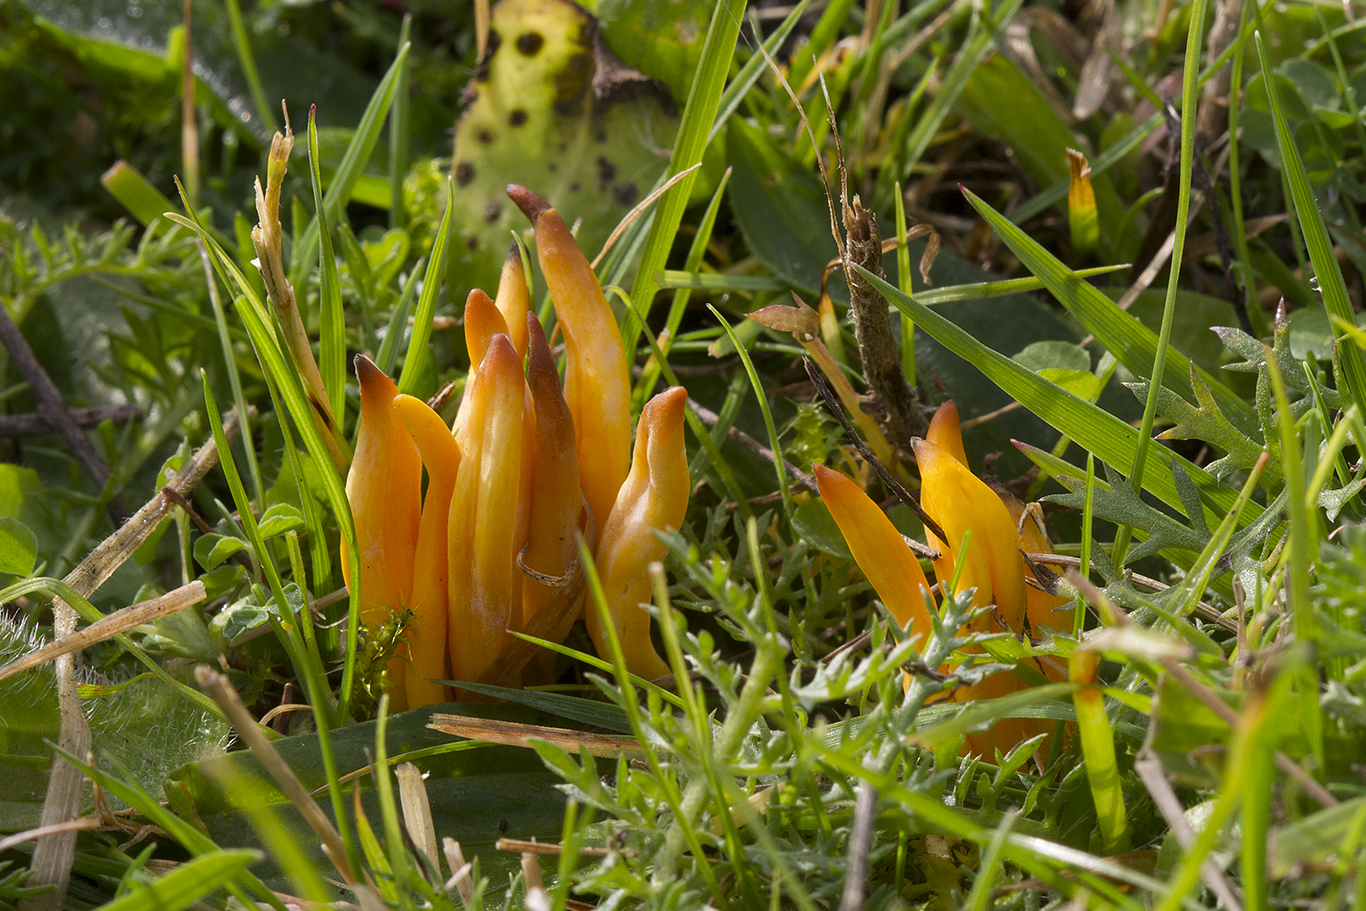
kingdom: Fungi
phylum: Basidiomycota
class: Agaricomycetes
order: Agaricales
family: Clavariaceae
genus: Clavulinopsis
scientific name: Clavulinopsis helvola
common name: orangegul køllesvamp
